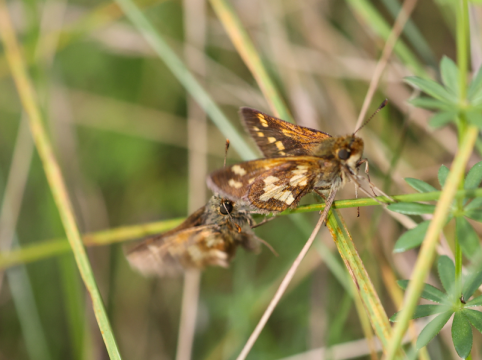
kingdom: Animalia
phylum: Arthropoda
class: Insecta
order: Lepidoptera
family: Hesperiidae
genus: Polites
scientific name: Polites coras
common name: Peck's Skipper
